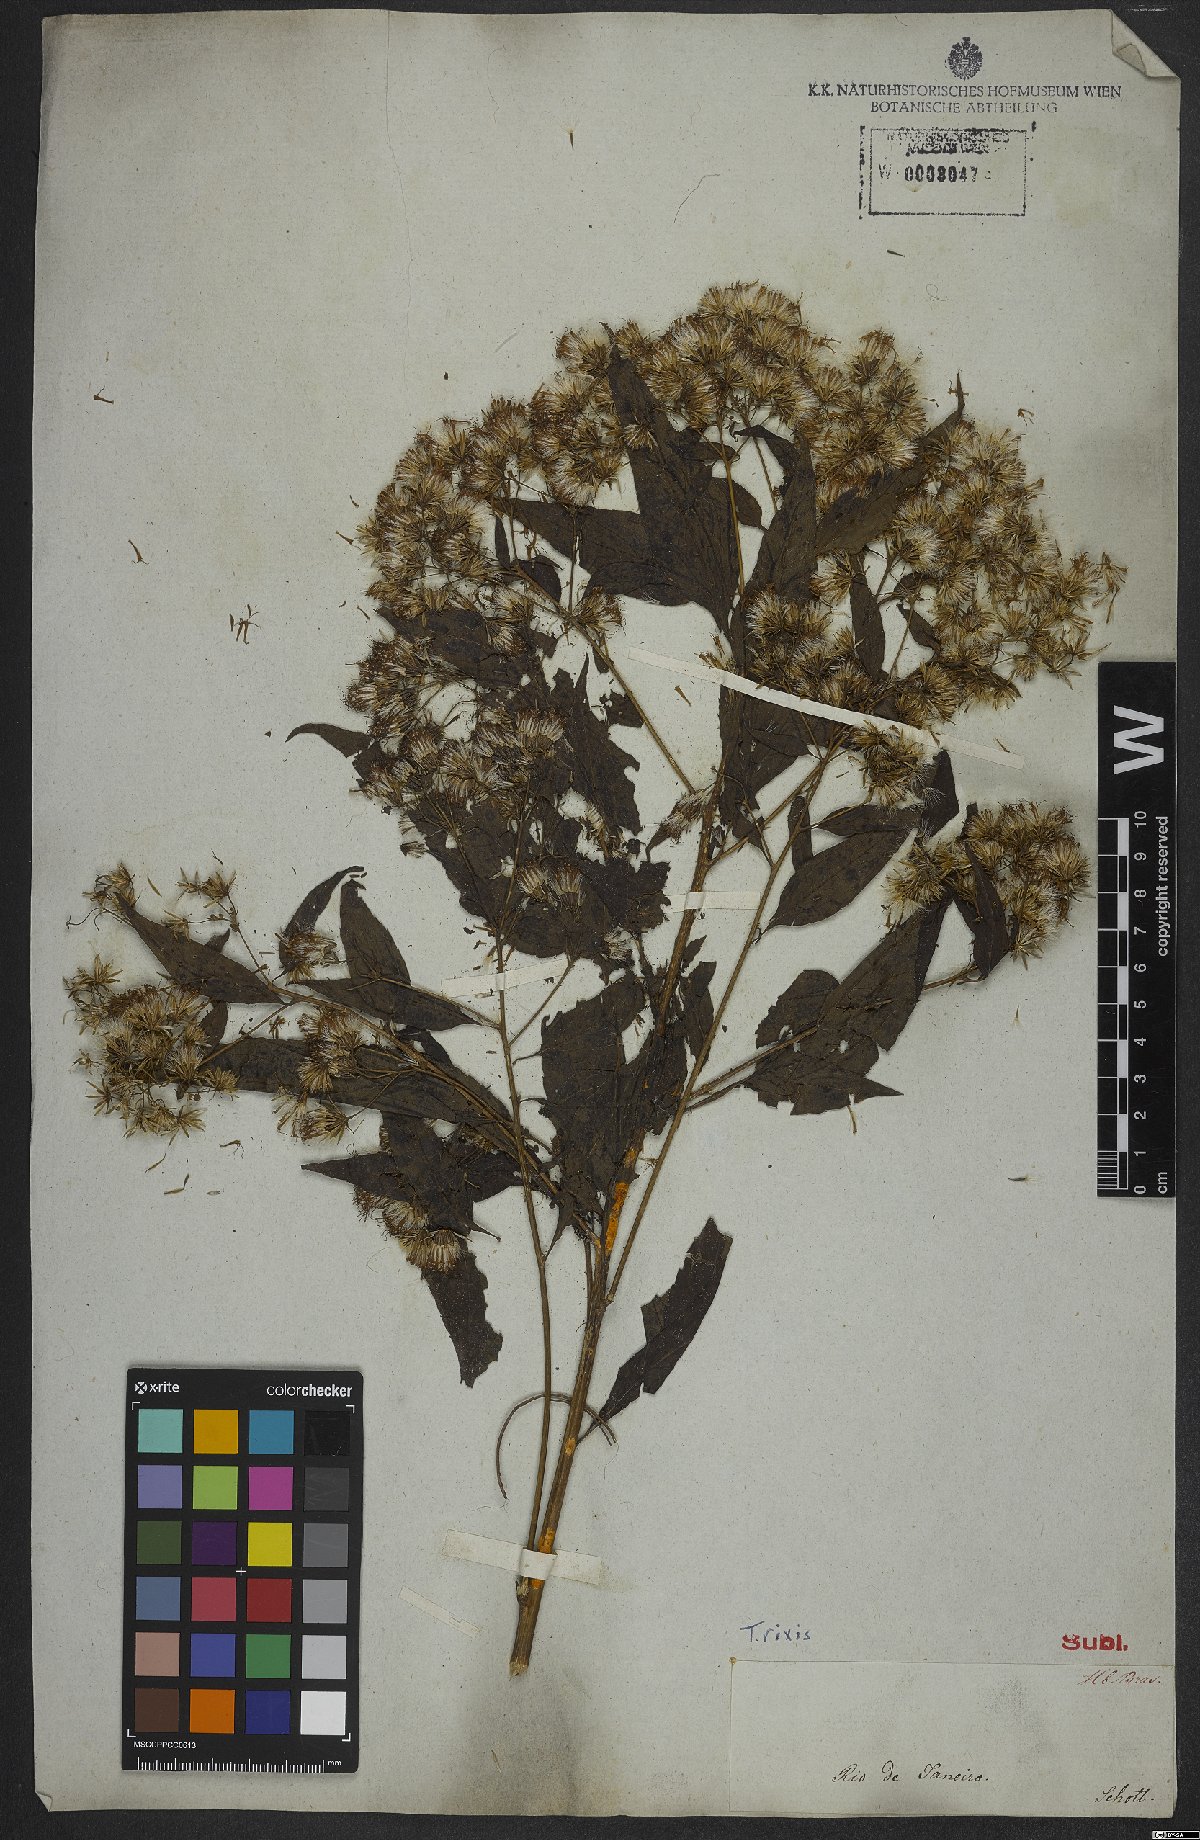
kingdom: Plantae
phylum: Tracheophyta
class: Magnoliopsida
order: Asterales
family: Asteraceae
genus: Trixis
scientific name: Trixis
